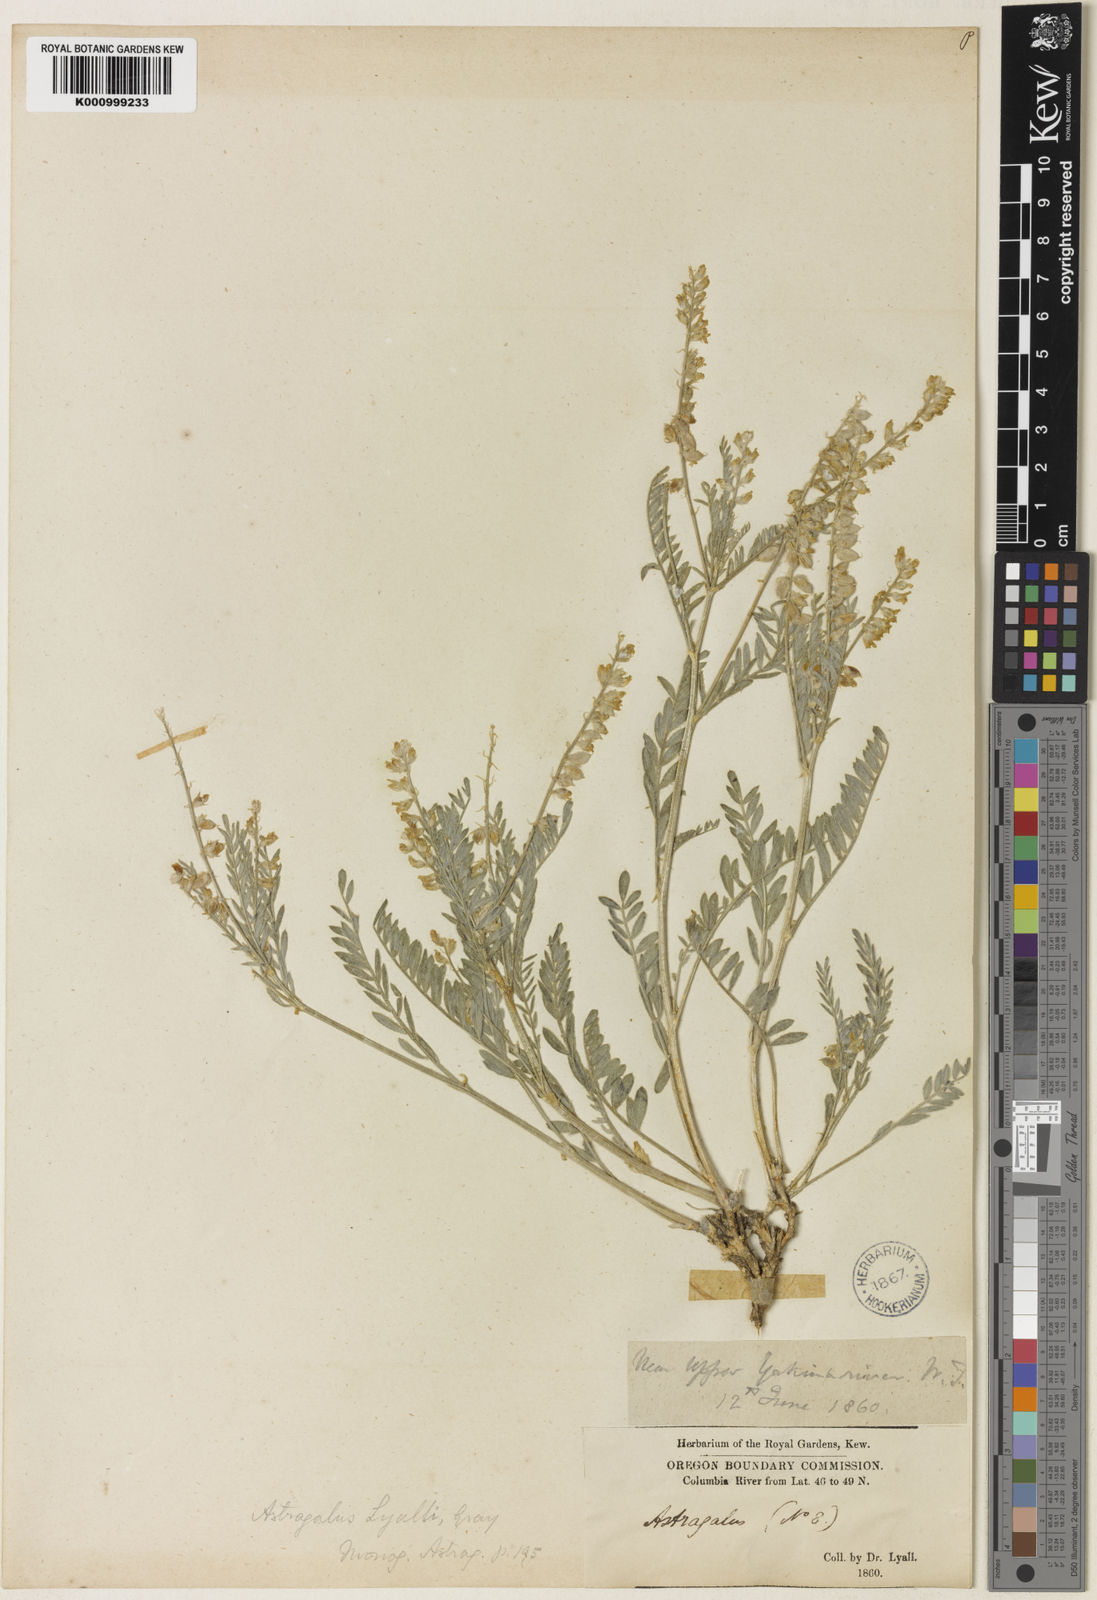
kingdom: Plantae
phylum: Tracheophyta
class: Magnoliopsida
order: Fabales
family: Fabaceae
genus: Astragalus
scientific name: Astragalus lyallii
